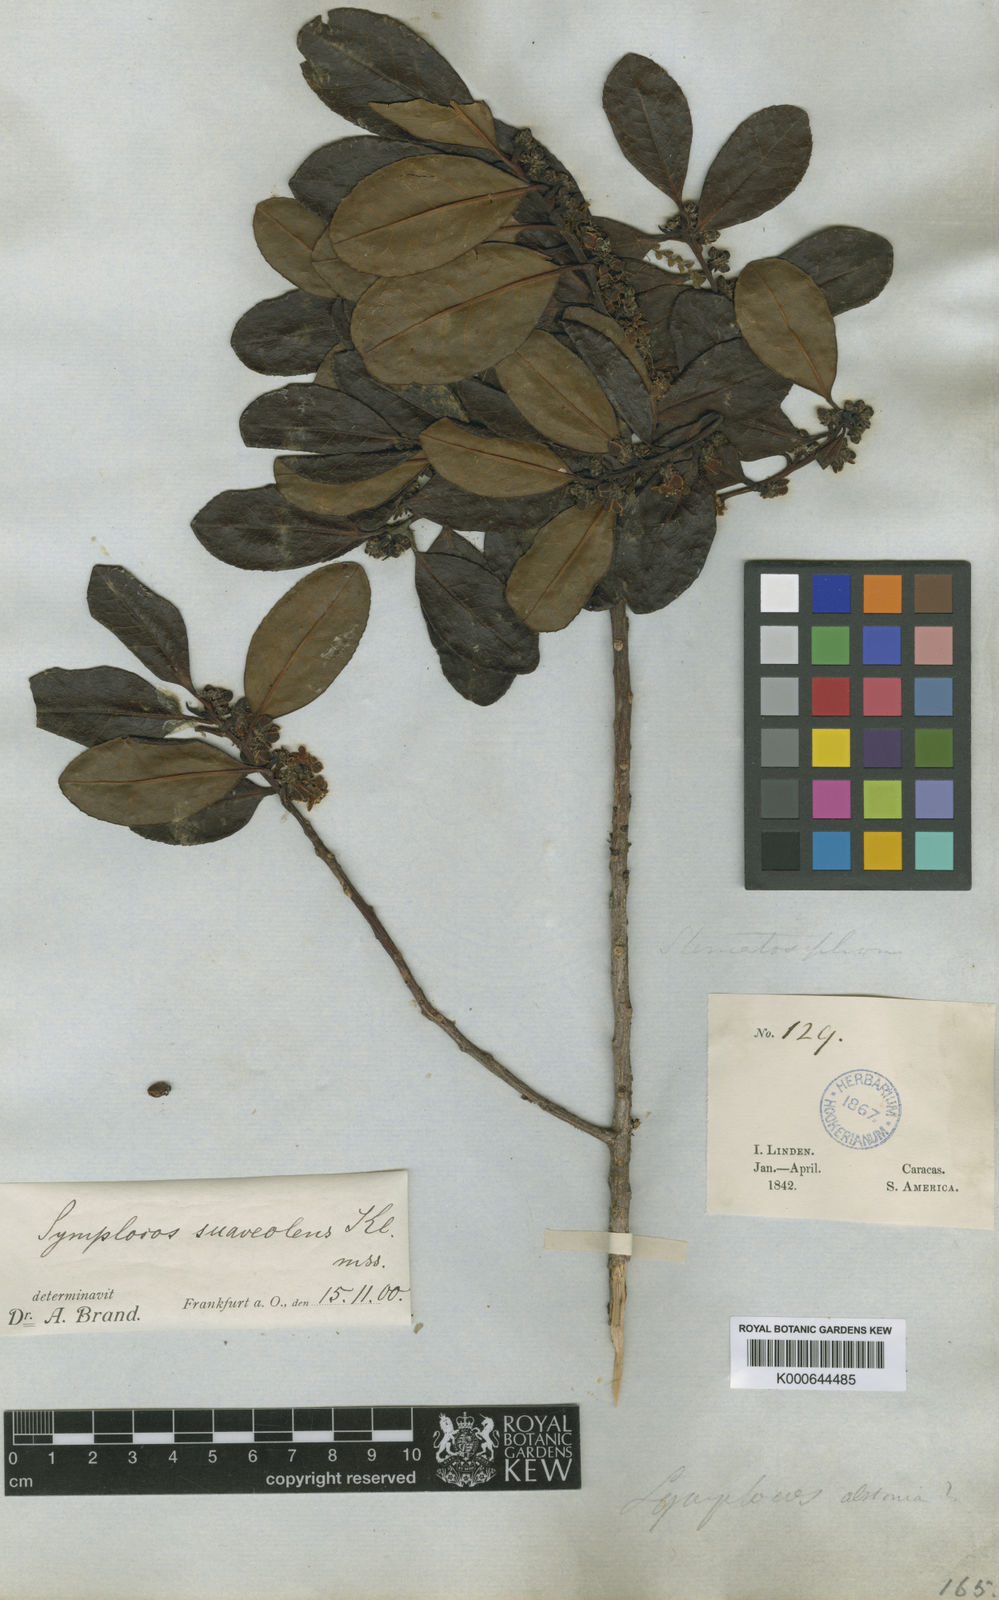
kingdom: Plantae
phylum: Tracheophyta
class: Magnoliopsida
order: Ericales
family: Symplocaceae
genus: Symplocos
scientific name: Symplocos
